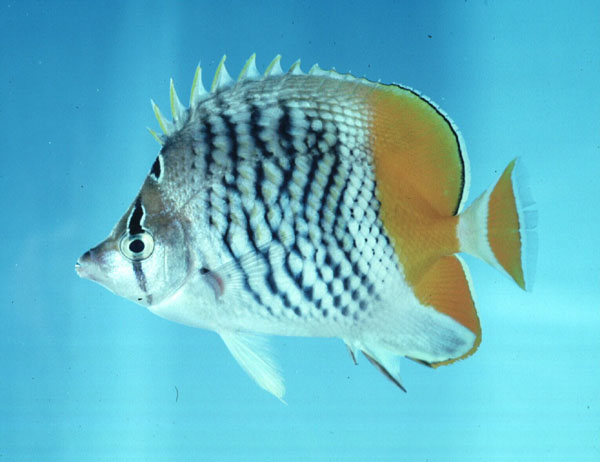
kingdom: Animalia
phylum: Chordata
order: Perciformes
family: Chaetodontidae
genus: Chaetodon
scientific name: Chaetodon madagaskariensis
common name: Madagascar butterflyfish
